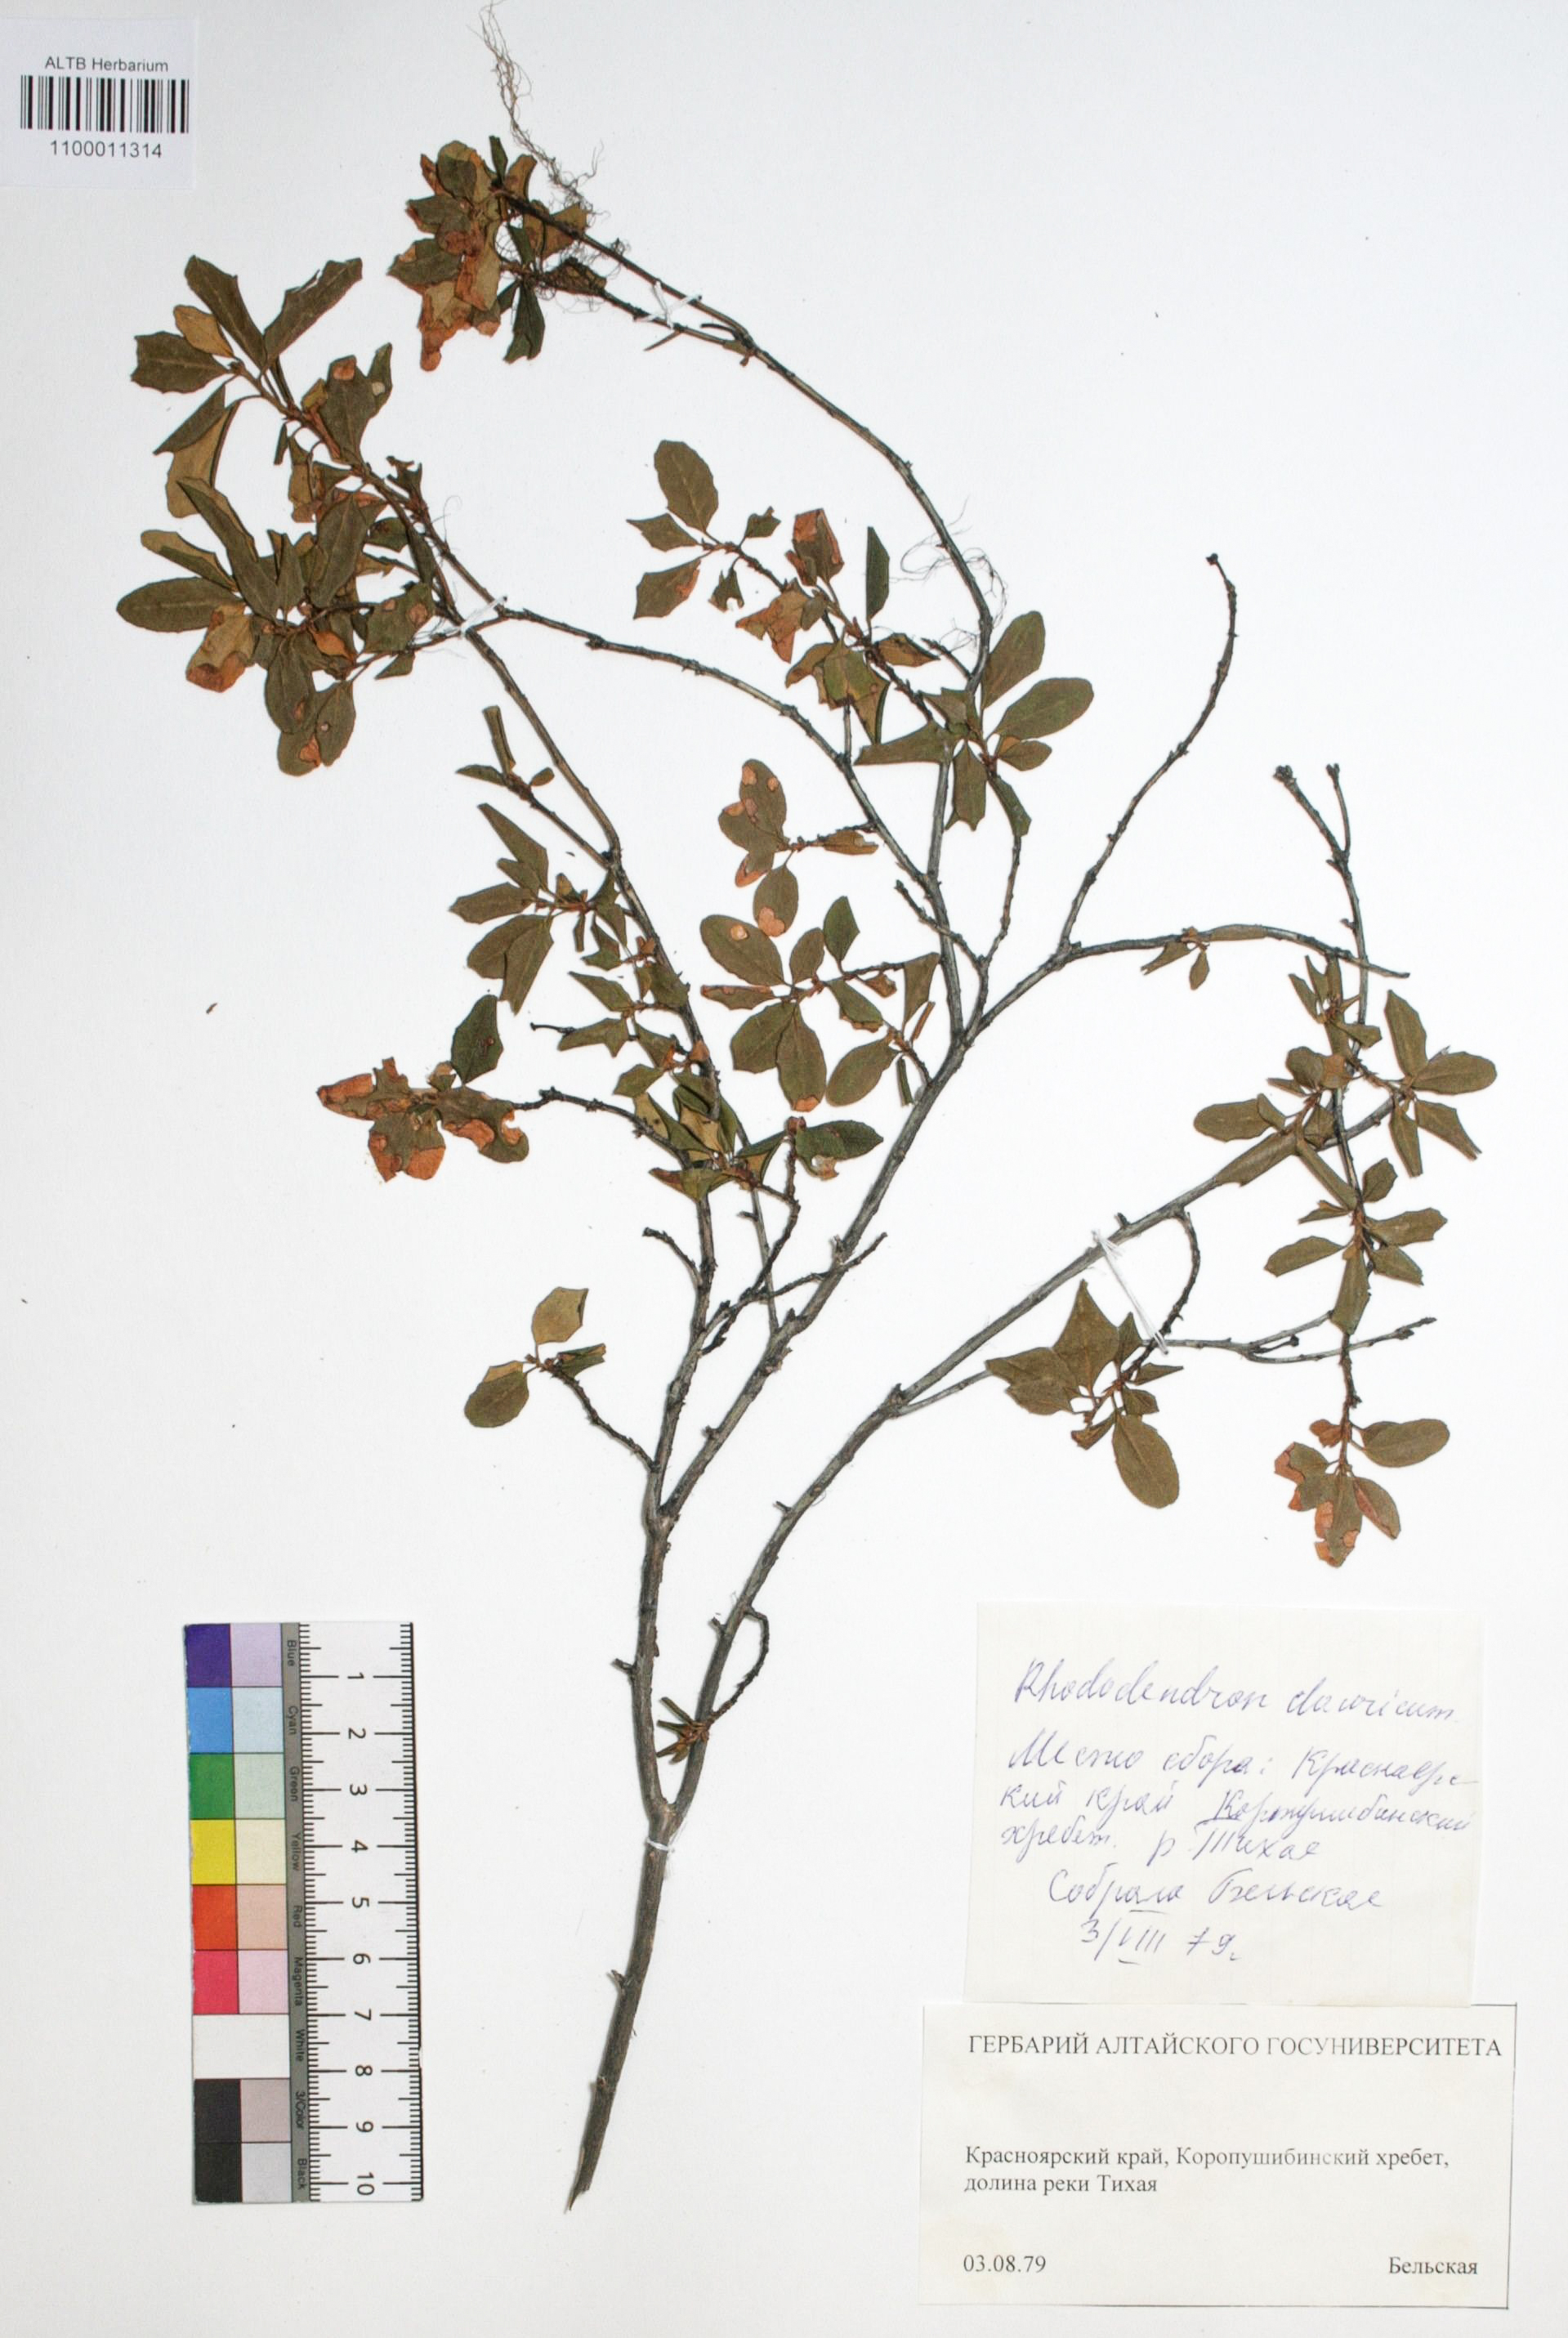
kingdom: Plantae
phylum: Tracheophyta
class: Magnoliopsida
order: Ericales
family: Ericaceae
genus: Rhododendron
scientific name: Rhododendron dahuricum
